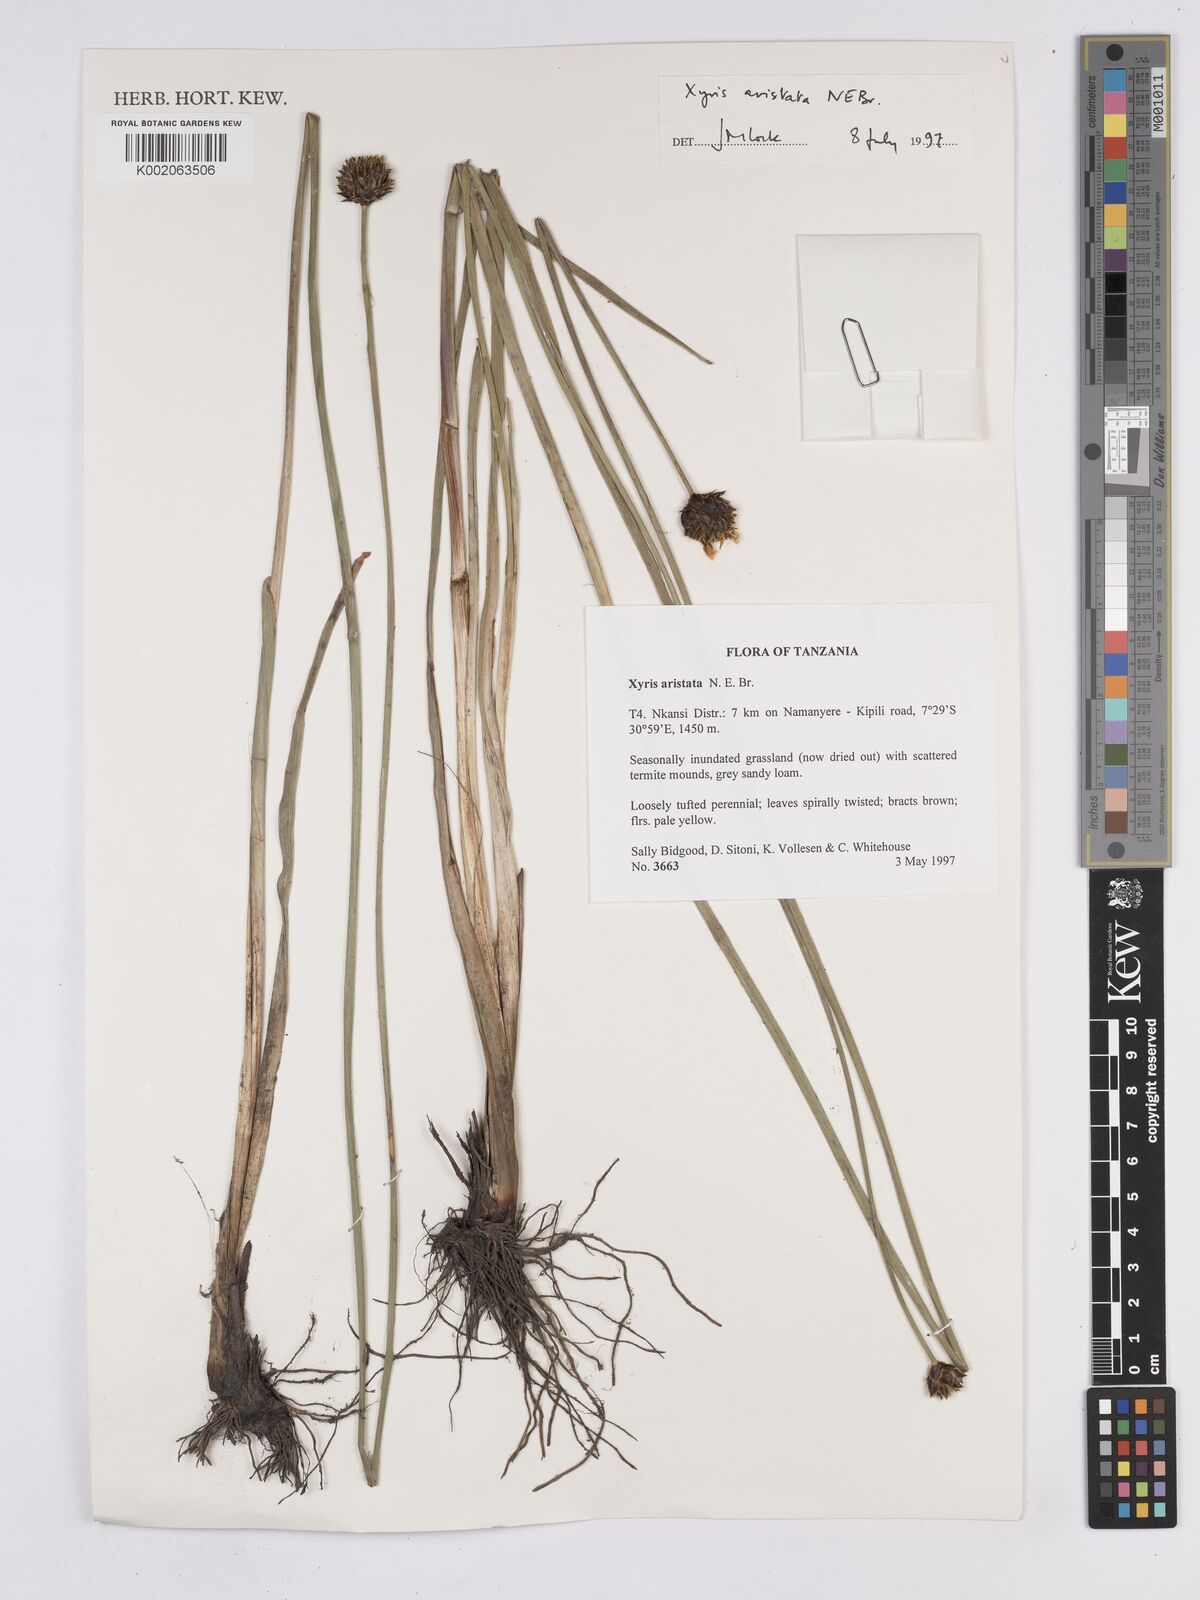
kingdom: Plantae
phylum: Tracheophyta
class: Liliopsida
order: Poales
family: Xyridaceae
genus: Xyris
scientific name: Xyris aristata
